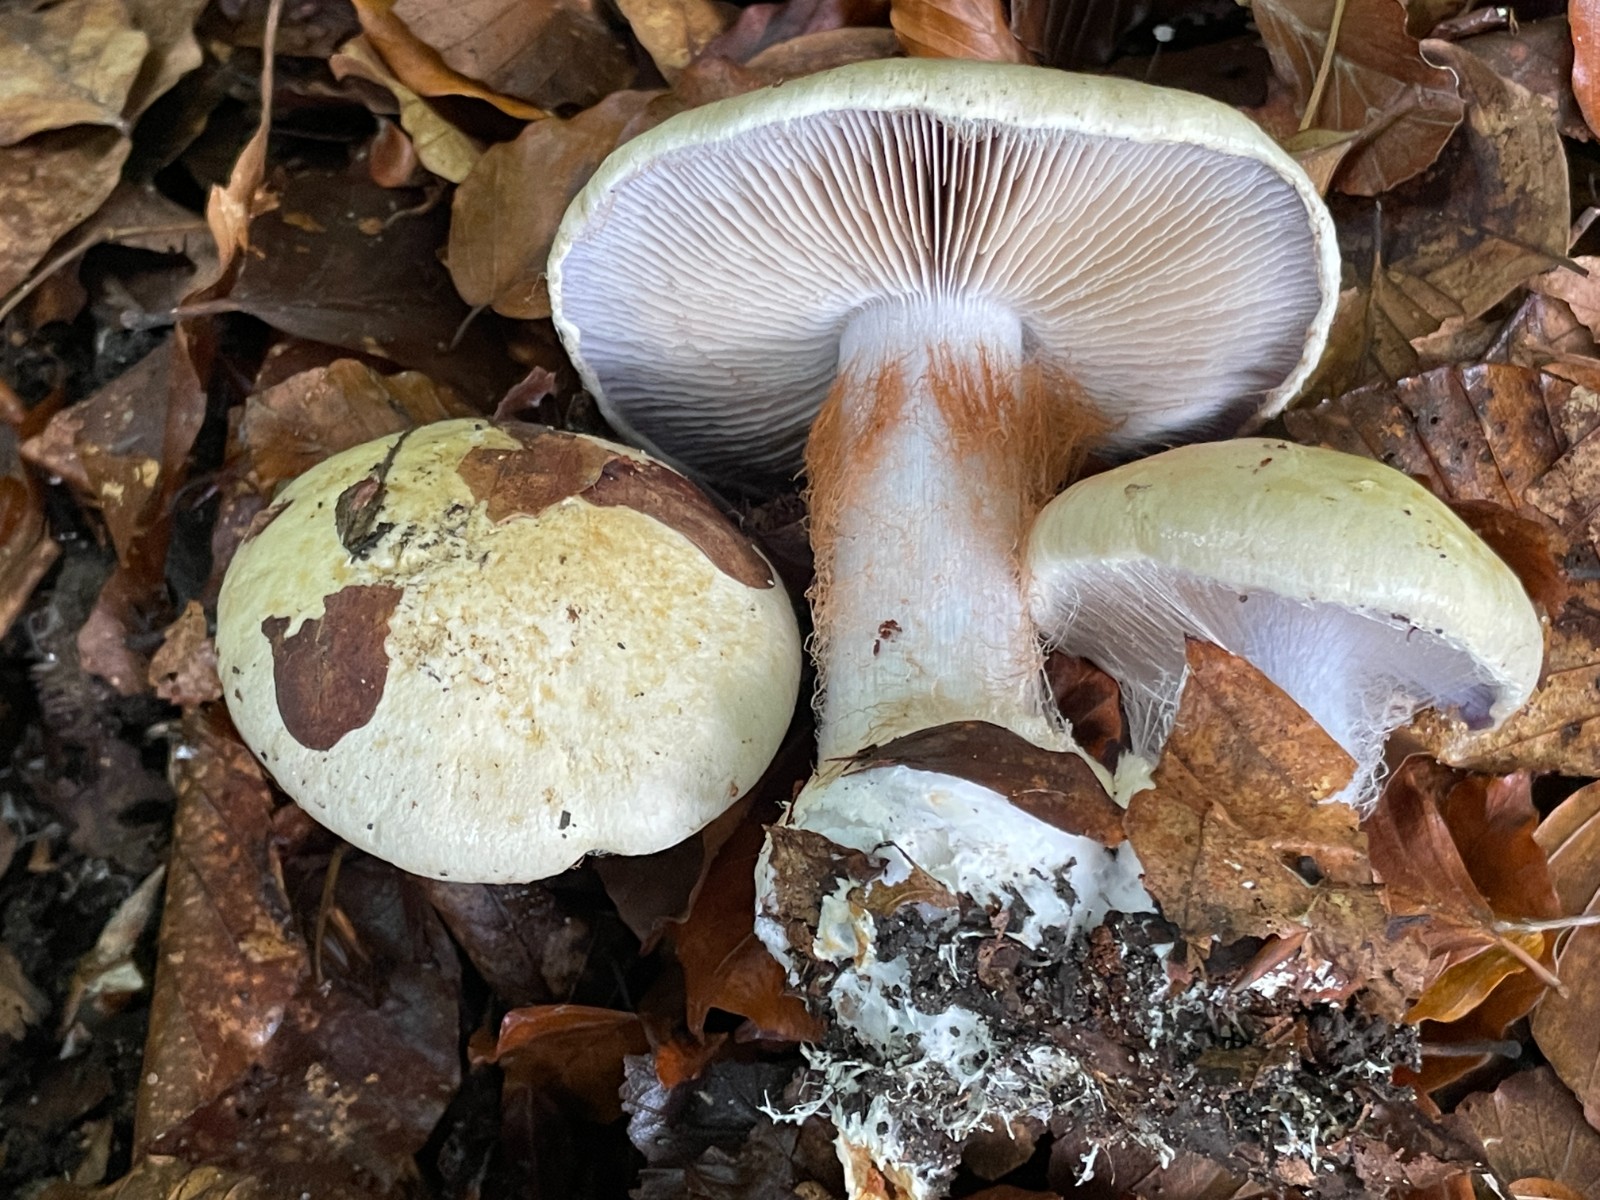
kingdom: Fungi
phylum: Basidiomycota
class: Agaricomycetes
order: Agaricales
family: Cortinariaceae
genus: Cortinarius
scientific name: Cortinarius anserinus
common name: bøge-slørhat
